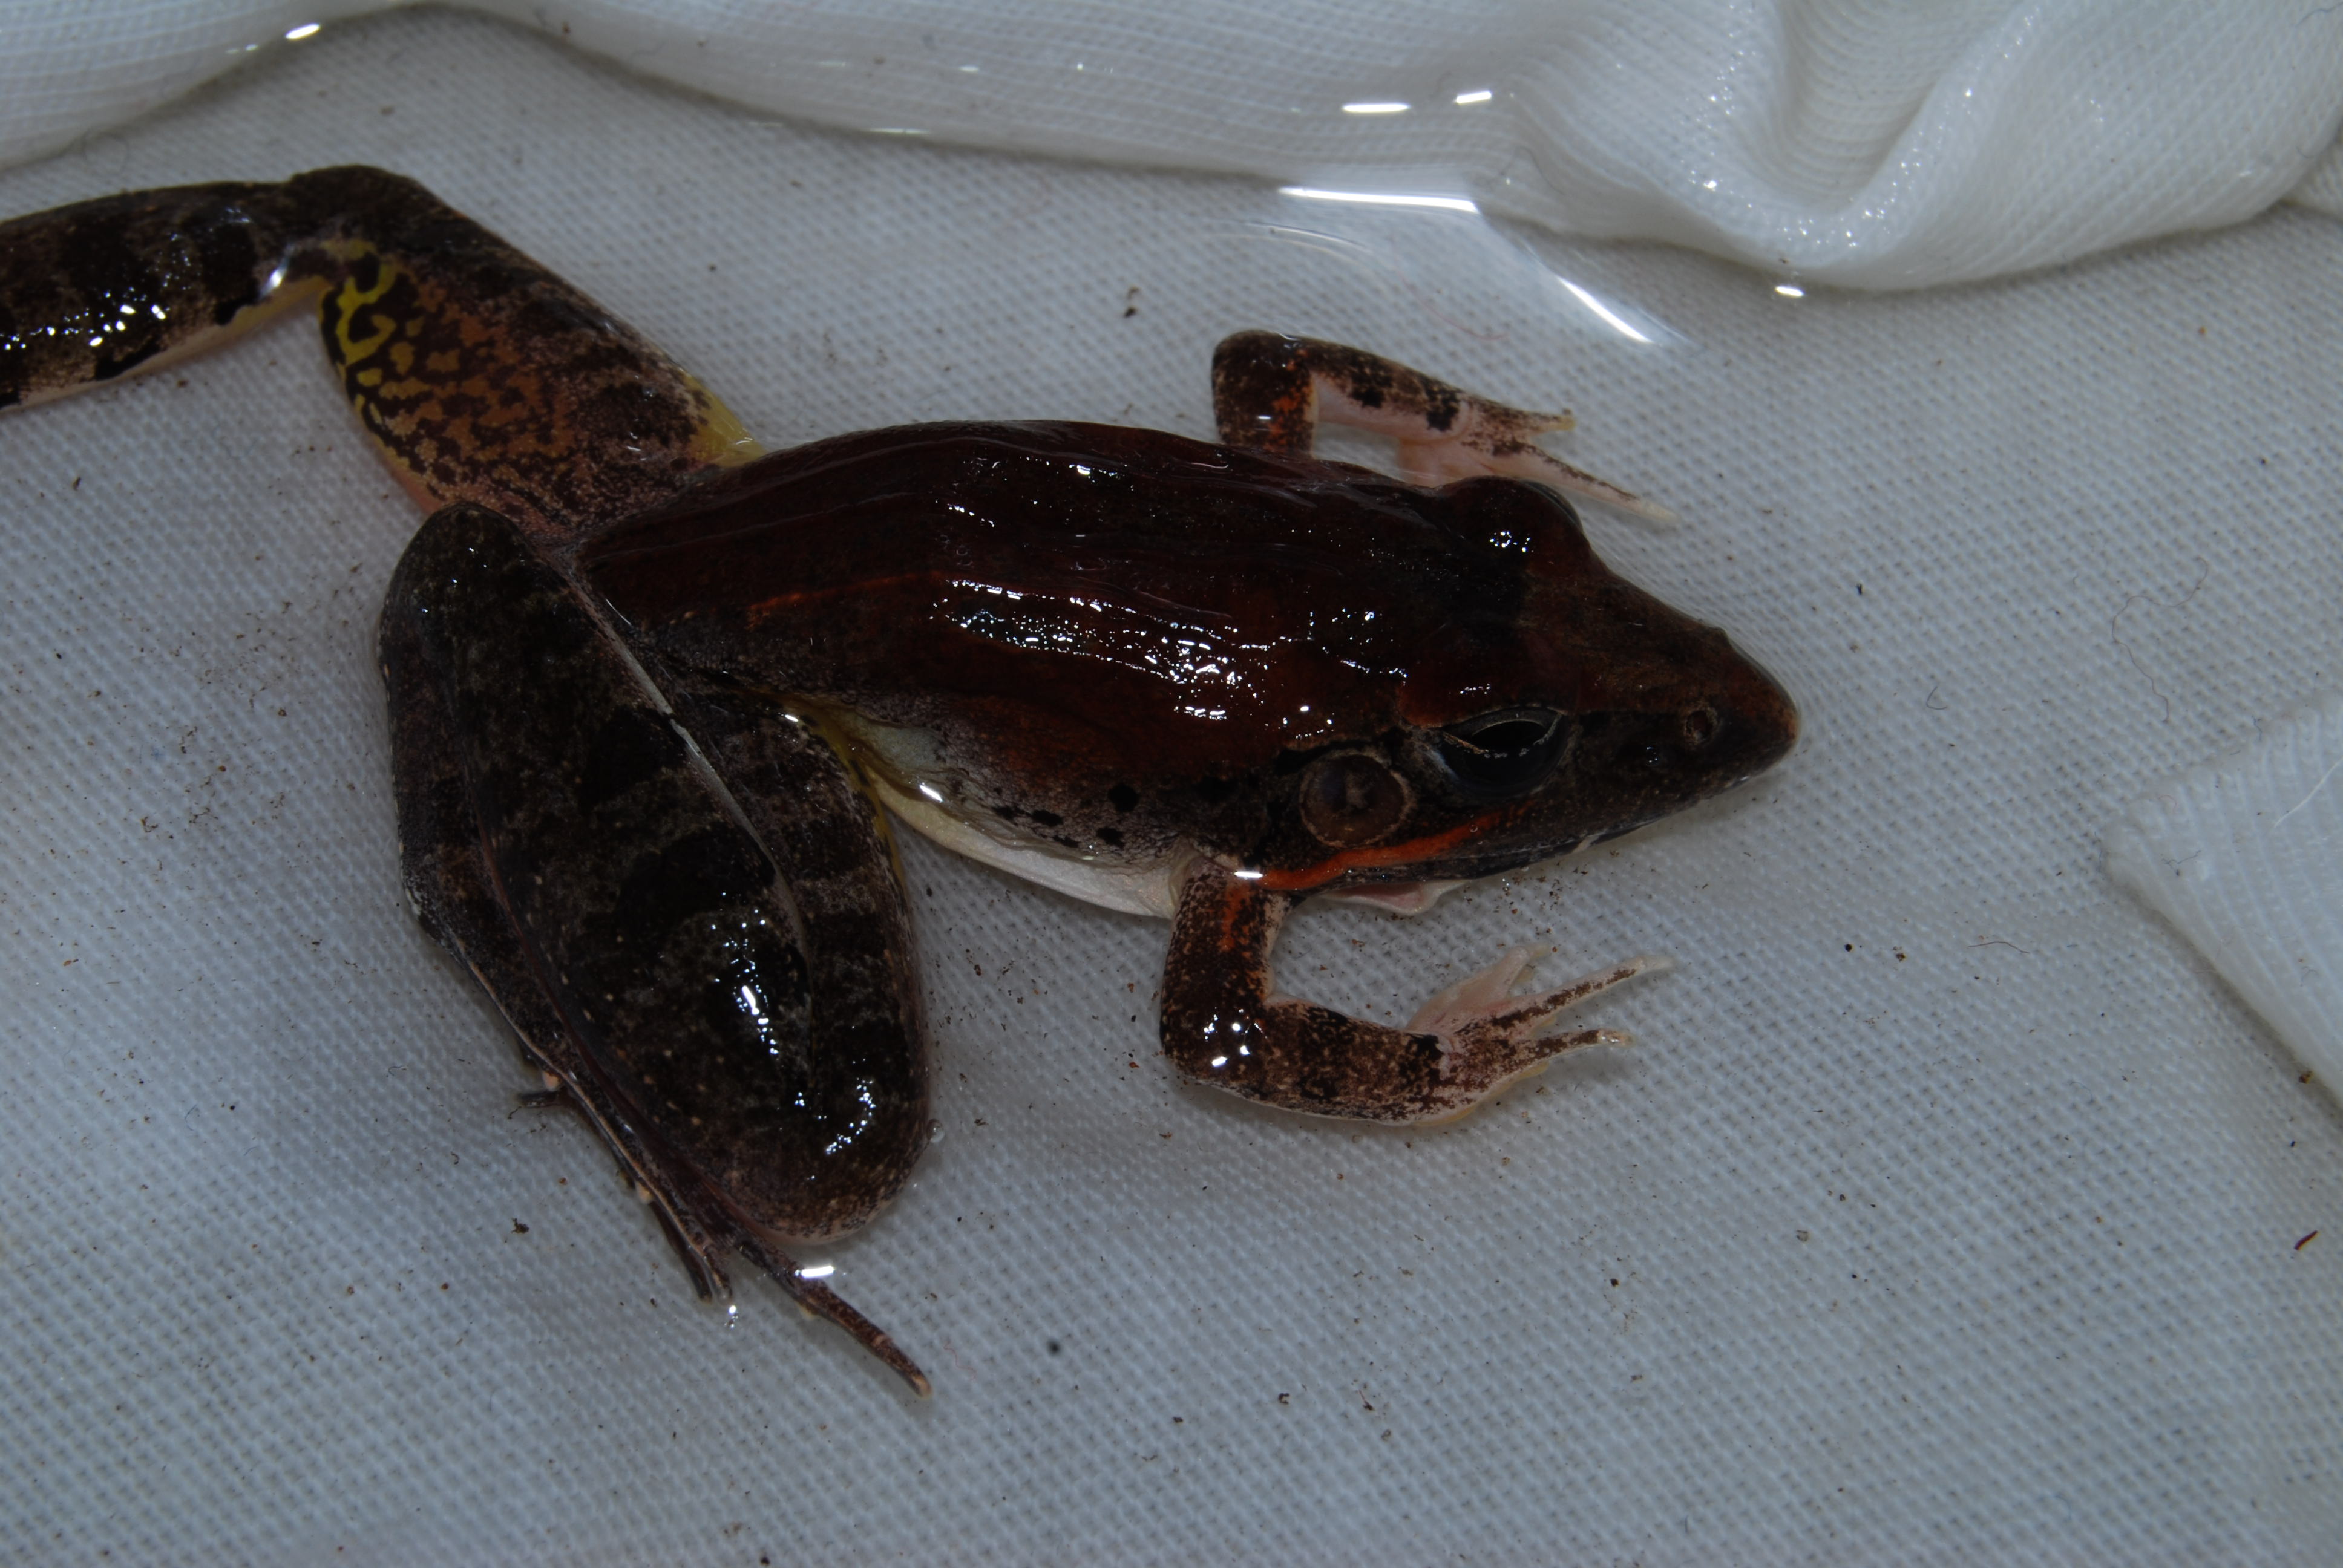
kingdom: Animalia
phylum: Chordata
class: Amphibia
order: Anura
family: Ptychadenidae
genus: Ptychadena
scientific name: Ptychadena
